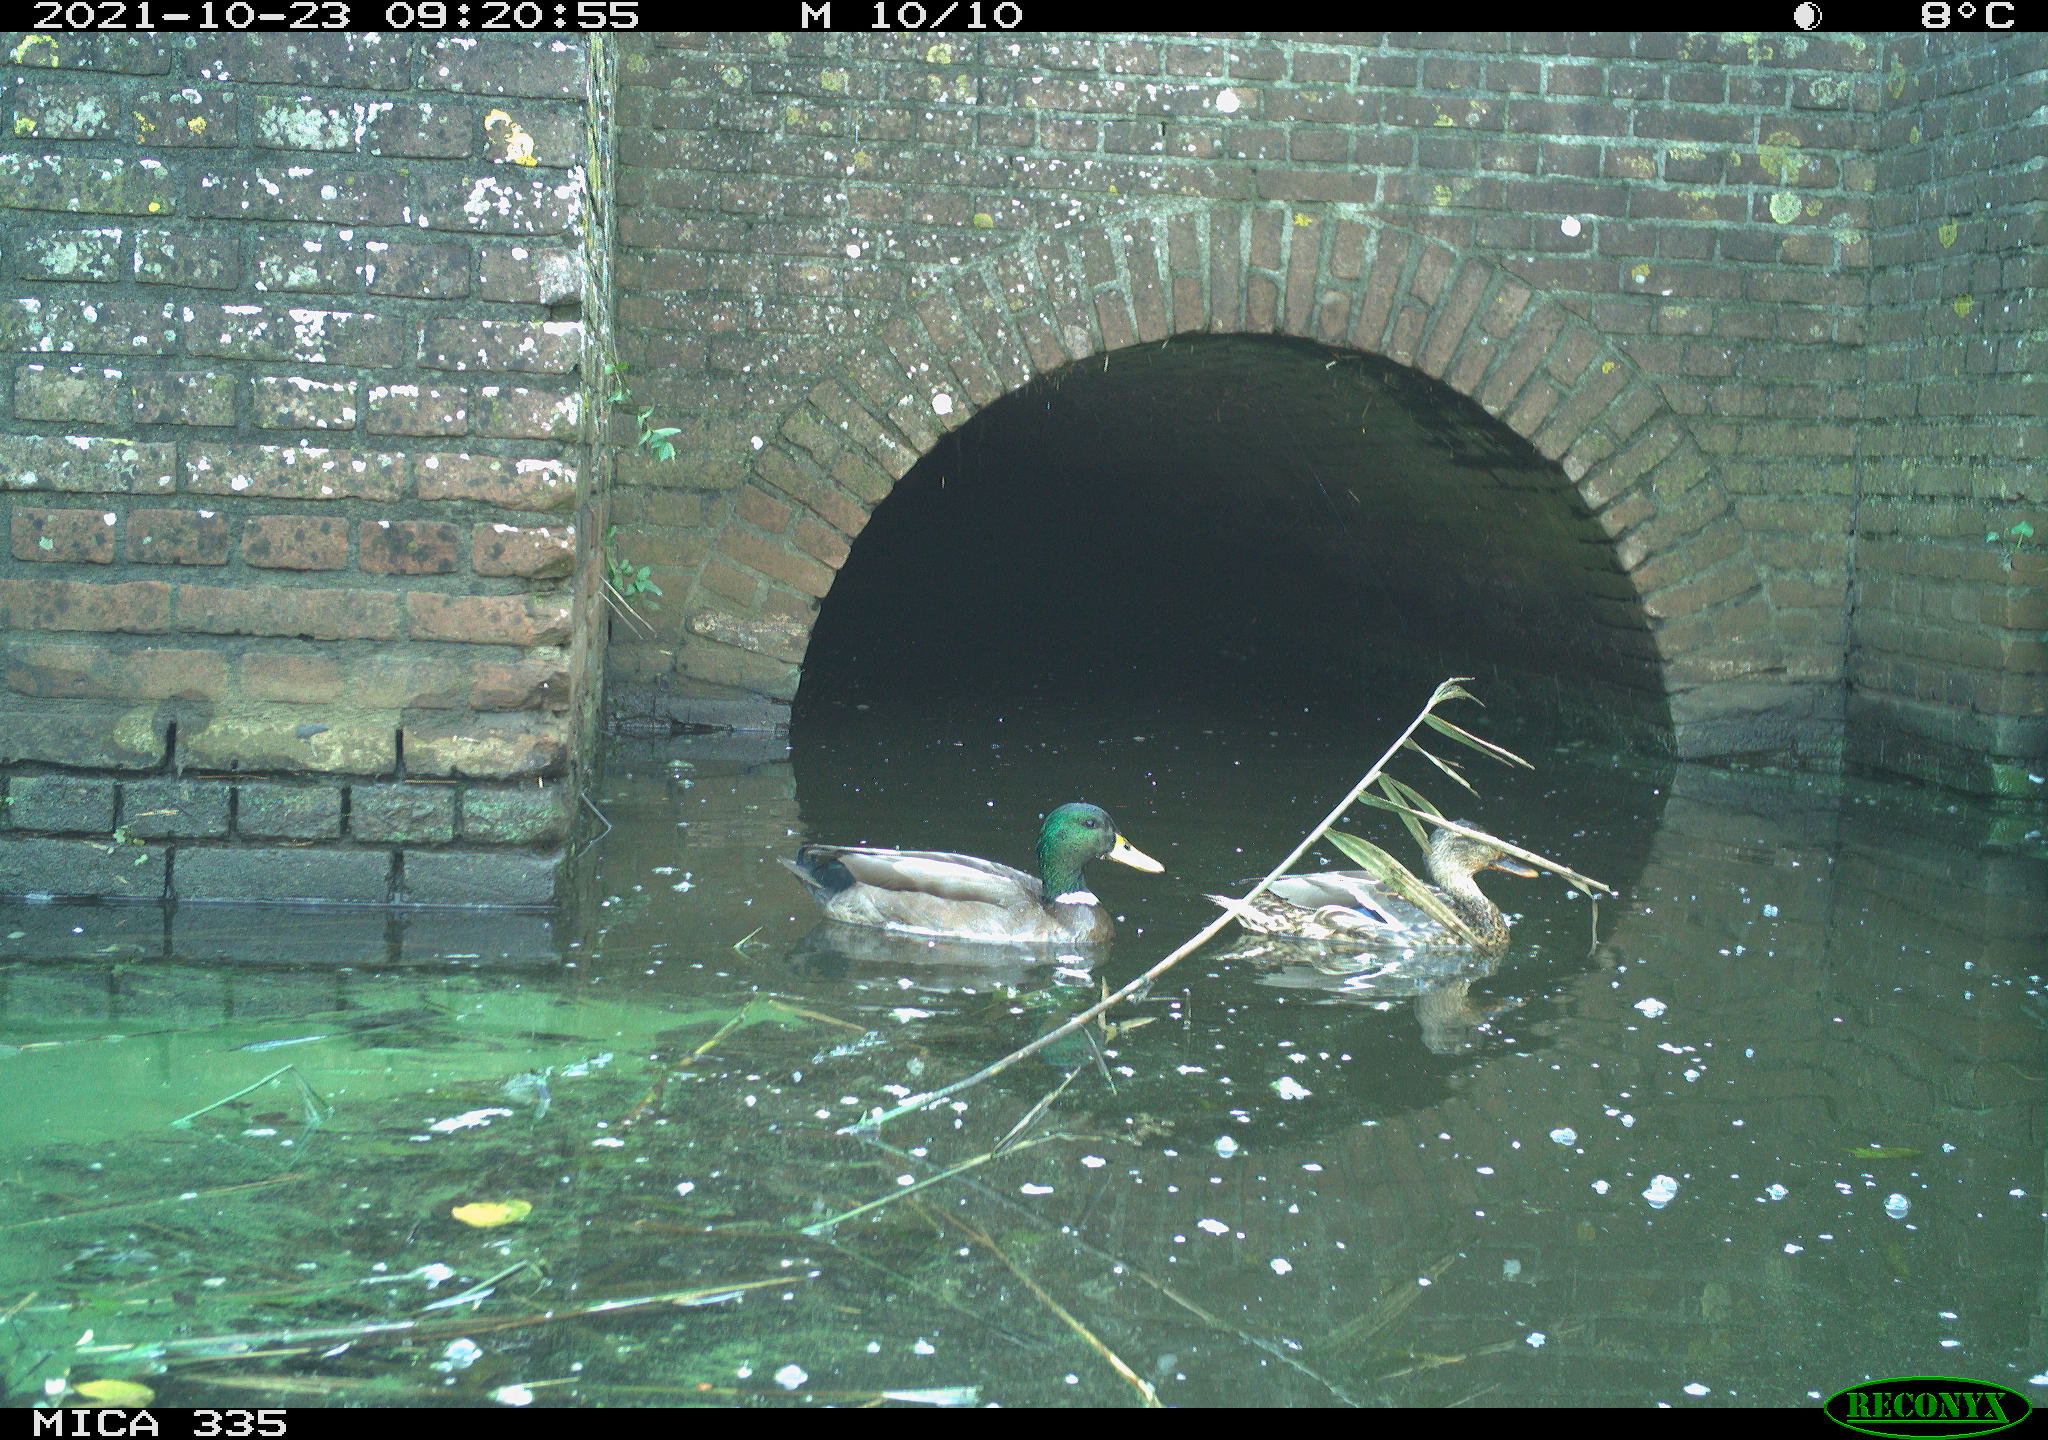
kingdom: Animalia
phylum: Chordata
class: Aves
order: Anseriformes
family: Anatidae
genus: Anas
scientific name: Anas platyrhynchos
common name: Mallard
